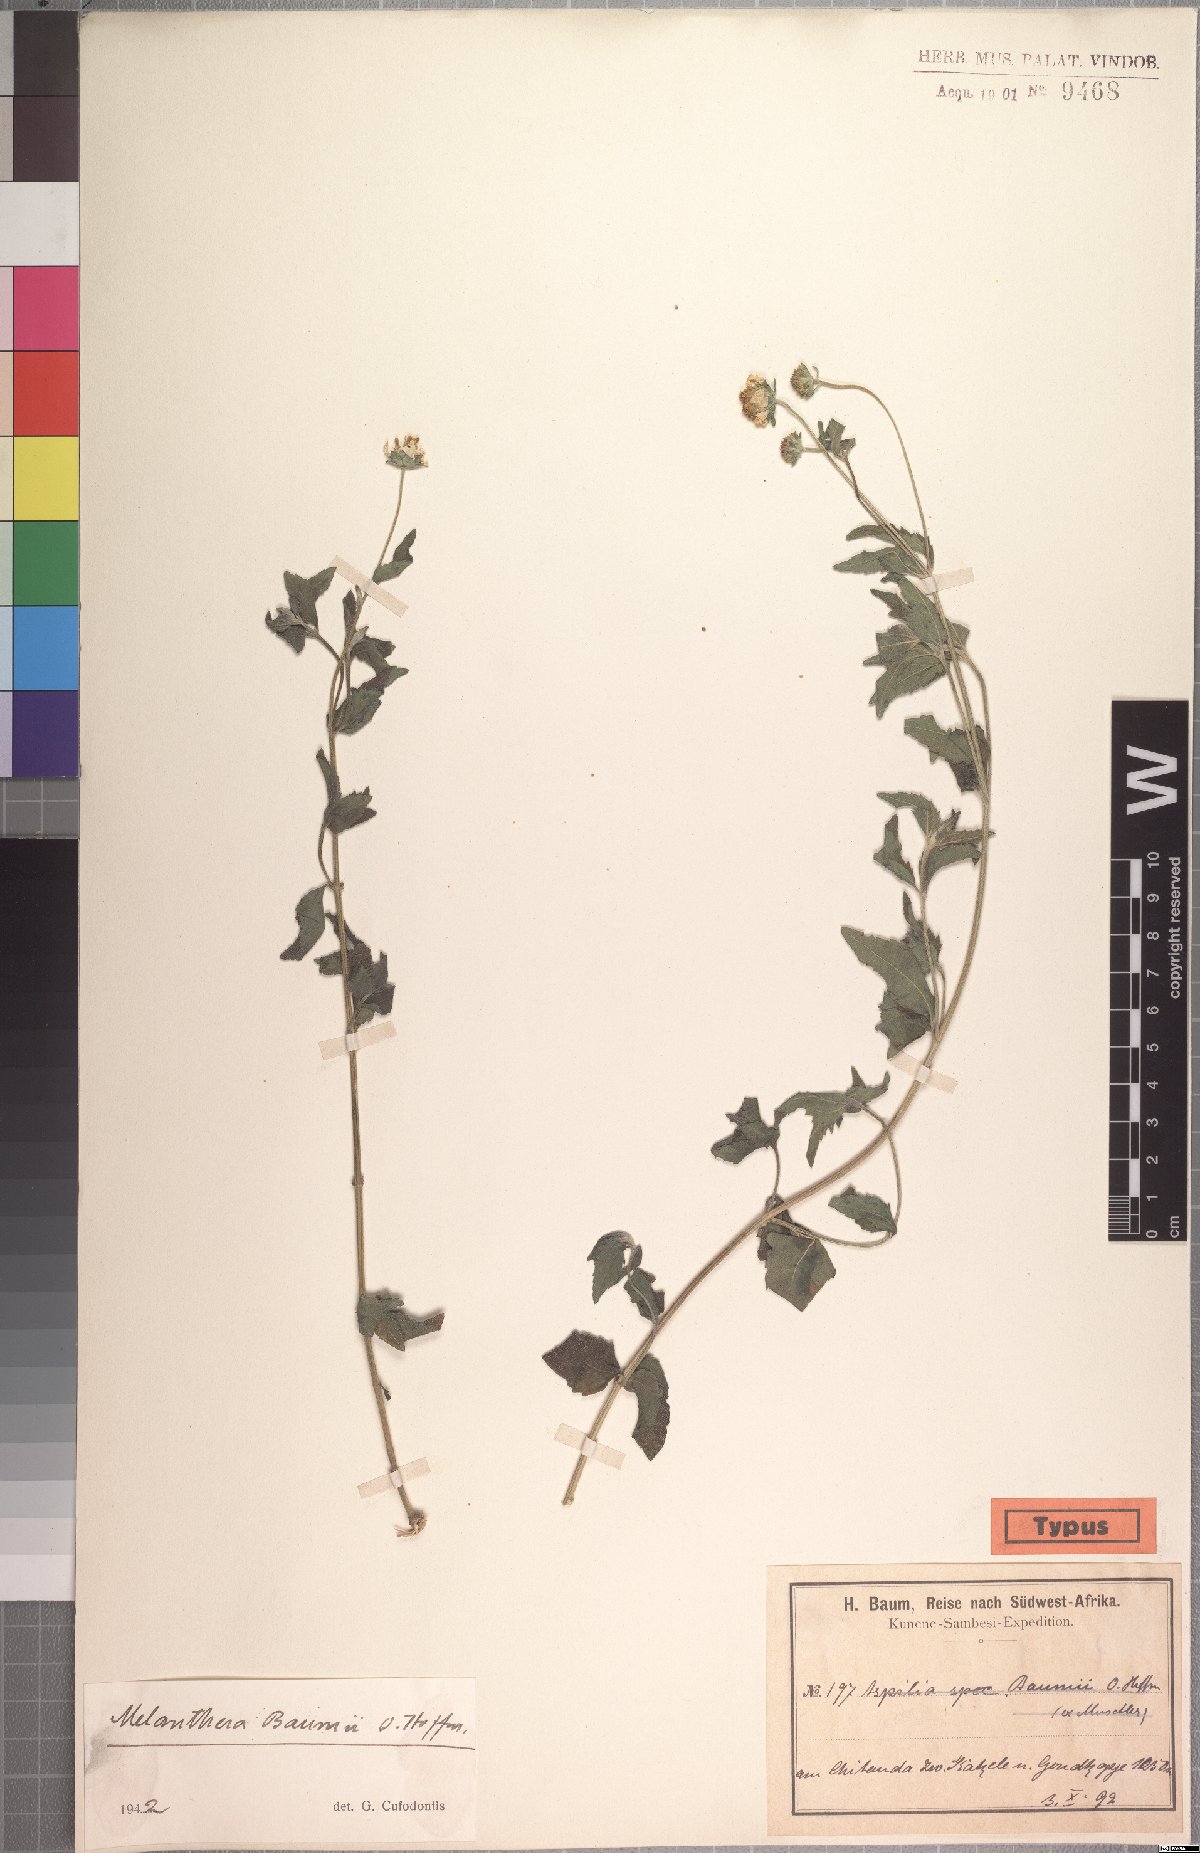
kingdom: Plantae
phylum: Tracheophyta
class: Magnoliopsida
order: Asterales
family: Asteraceae
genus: Lipotriche
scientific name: Lipotriche marlothiana
